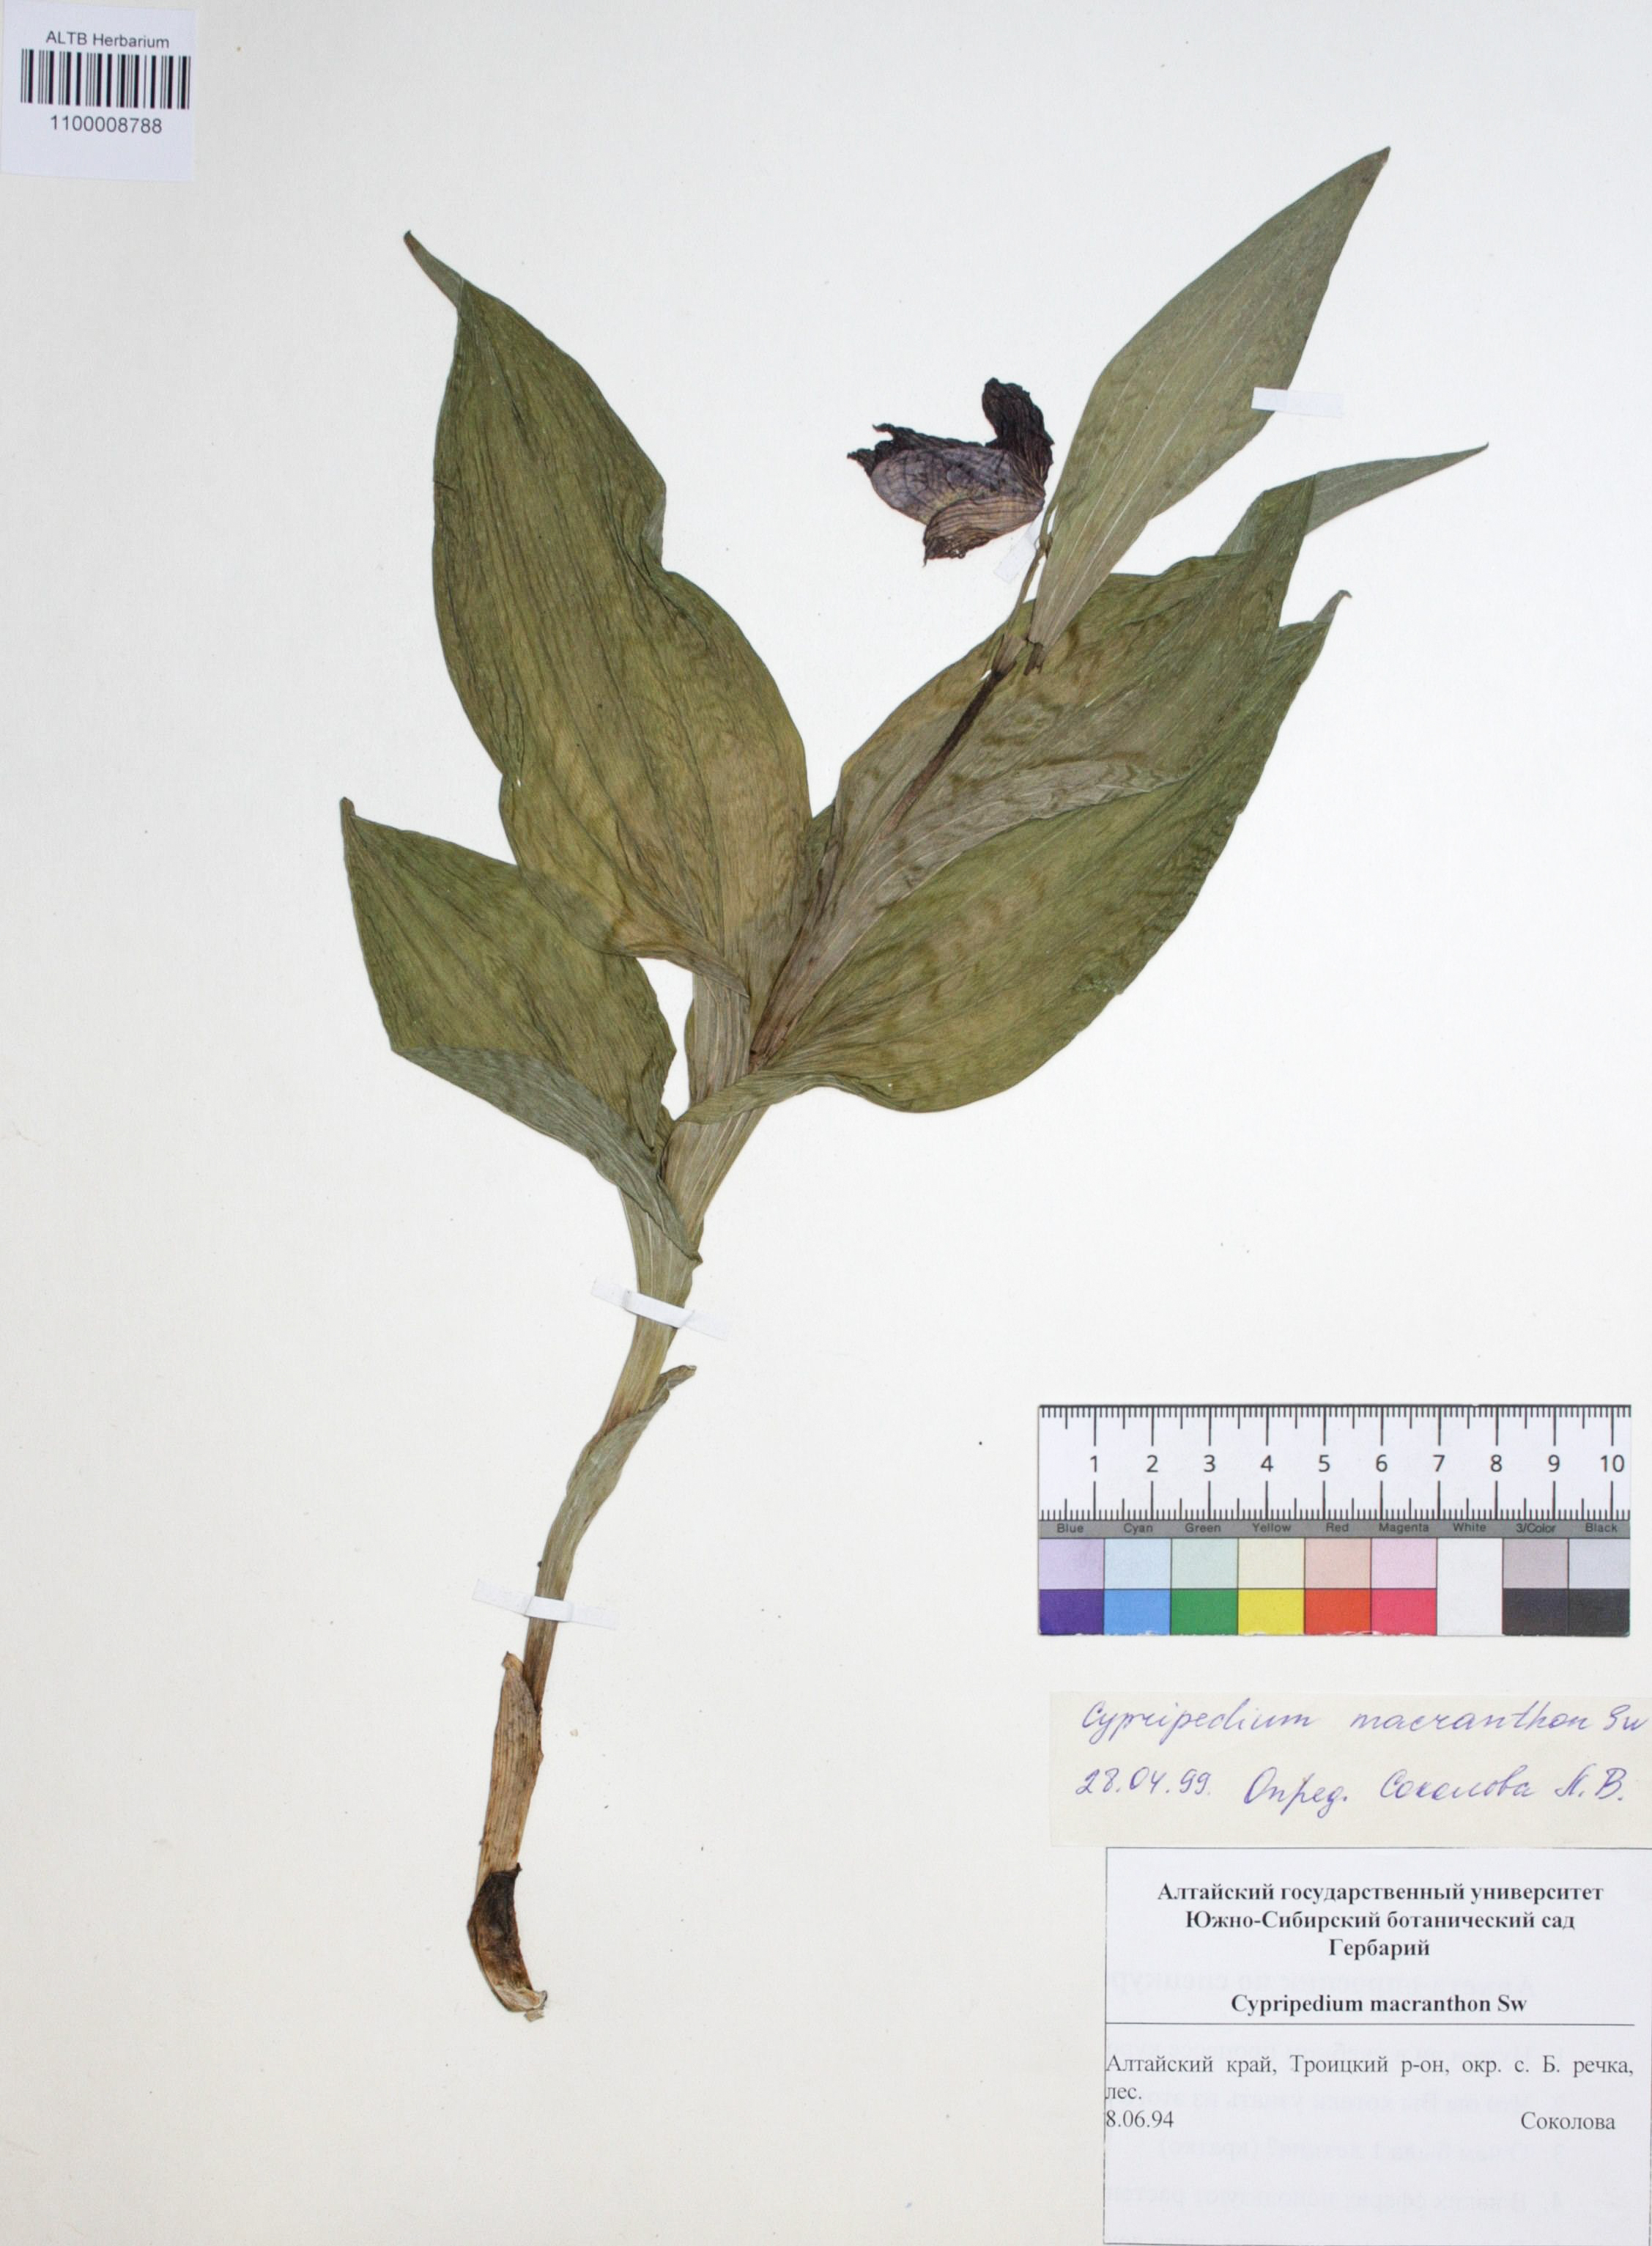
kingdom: Plantae
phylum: Tracheophyta
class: Liliopsida
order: Asparagales
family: Orchidaceae
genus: Cypripedium
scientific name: Cypripedium macranthon
